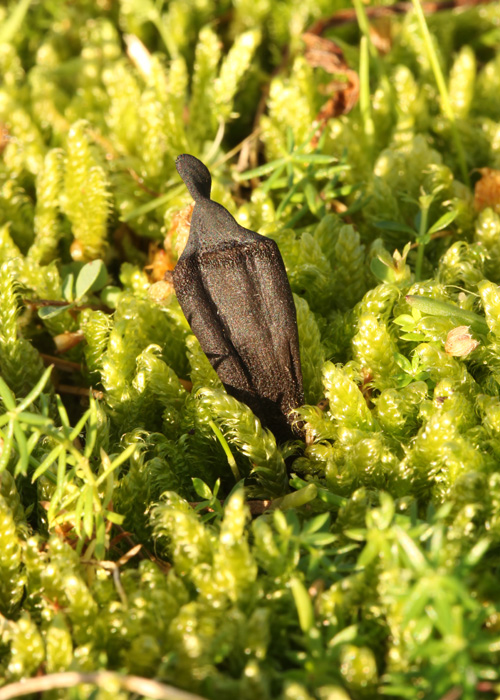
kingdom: Fungi
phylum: Ascomycota
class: Geoglossomycetes
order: Geoglossales
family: Geoglossaceae
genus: Geoglossum
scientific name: Geoglossum fallax
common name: småskællet jordtunge
